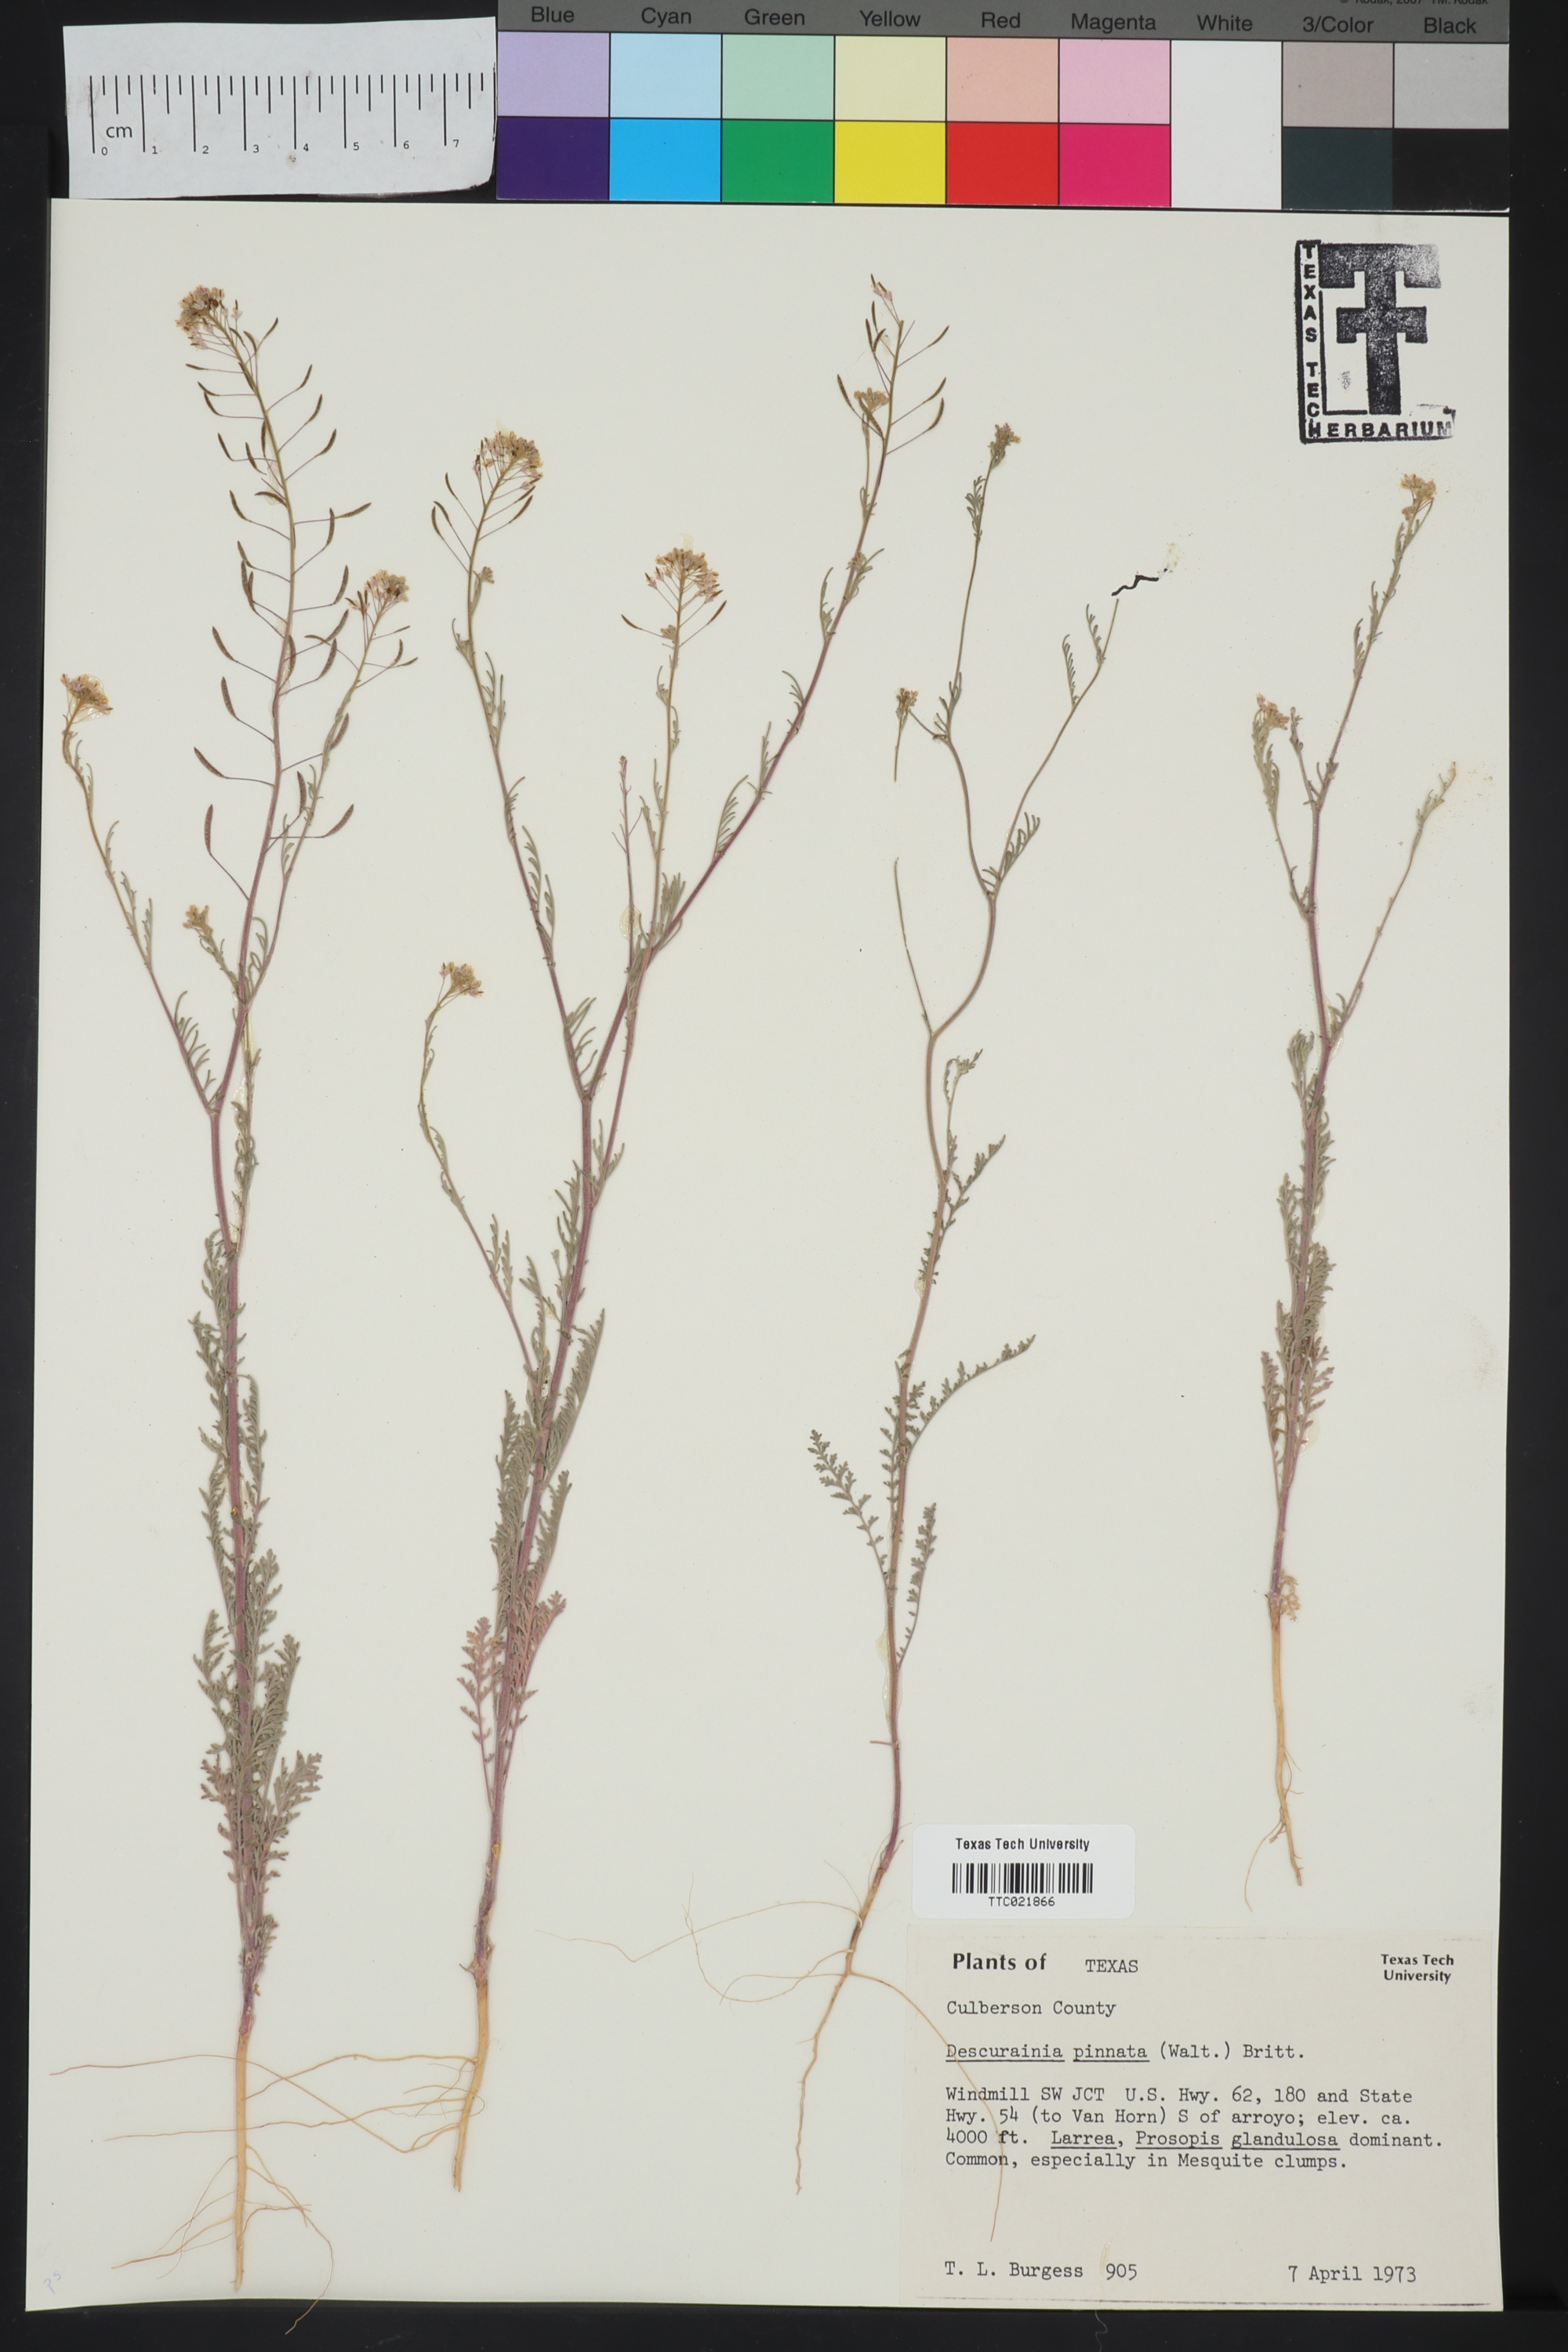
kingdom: Plantae
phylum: Tracheophyta
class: Magnoliopsida
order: Brassicales
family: Brassicaceae
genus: Descurainia
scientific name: Descurainia pinnata
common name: Western tansy mustard
